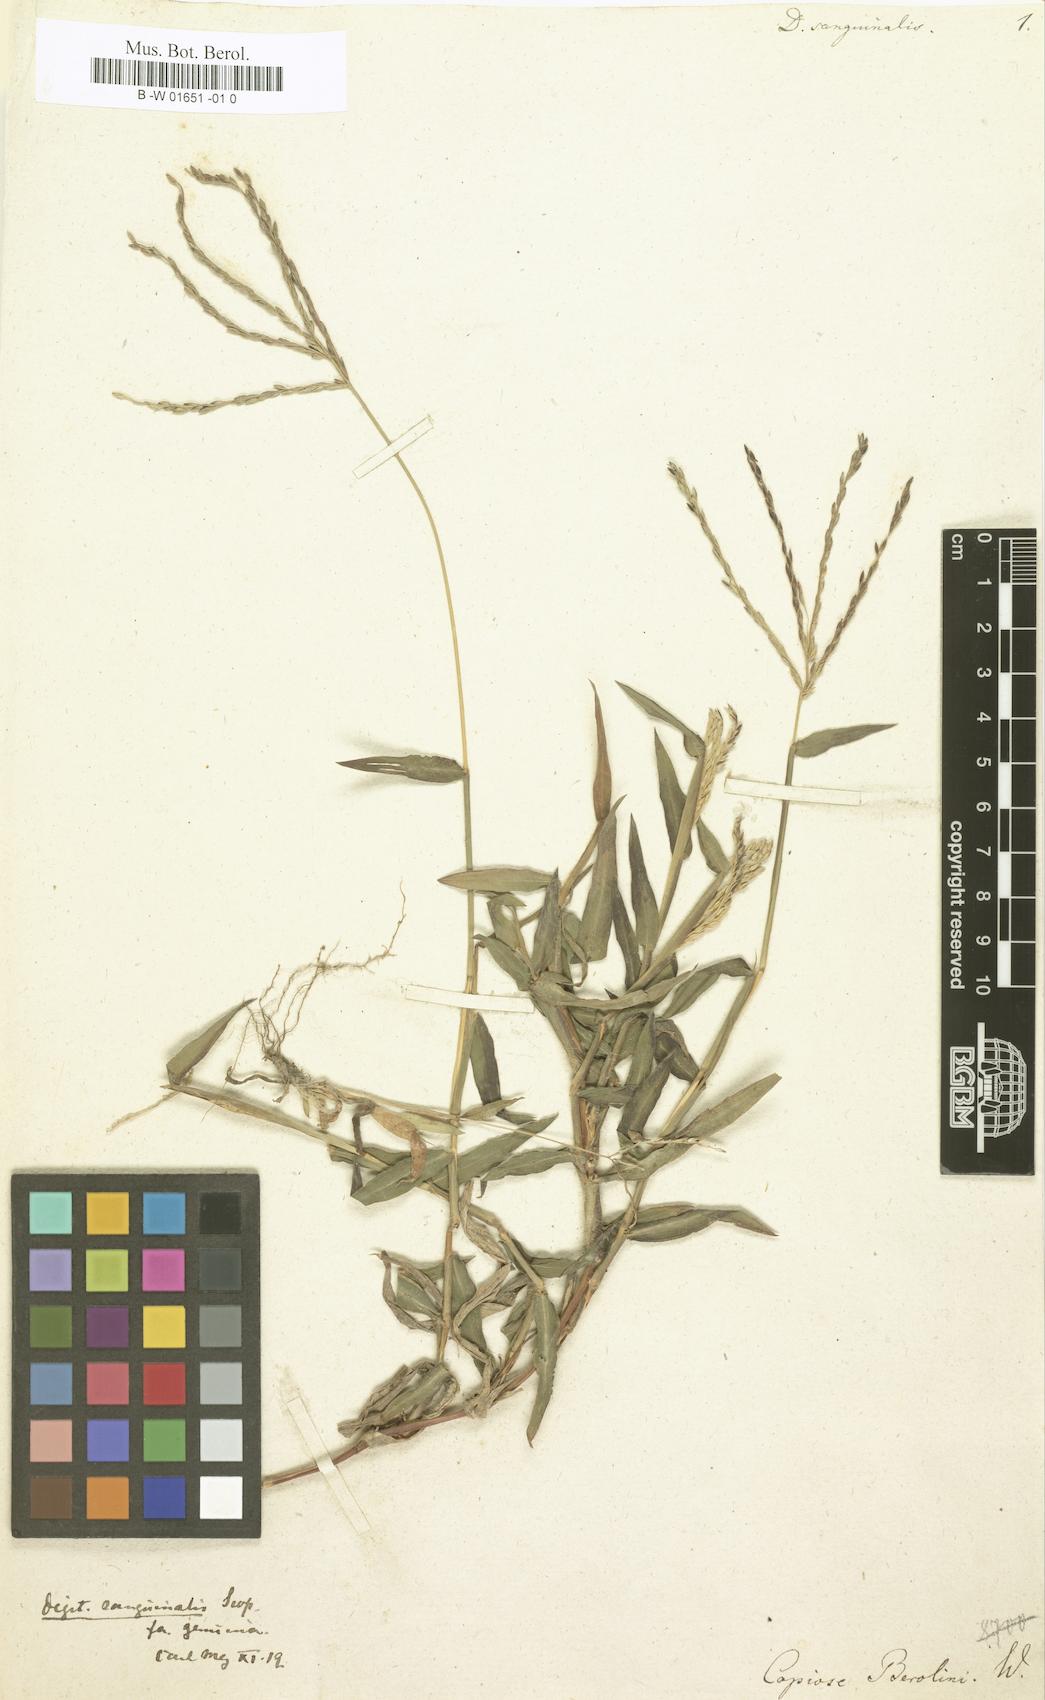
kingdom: Plantae
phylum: Tracheophyta
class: Liliopsida
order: Poales
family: Poaceae
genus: Digitaria
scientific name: Digitaria sanguinalis
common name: Hairy crabgrass
